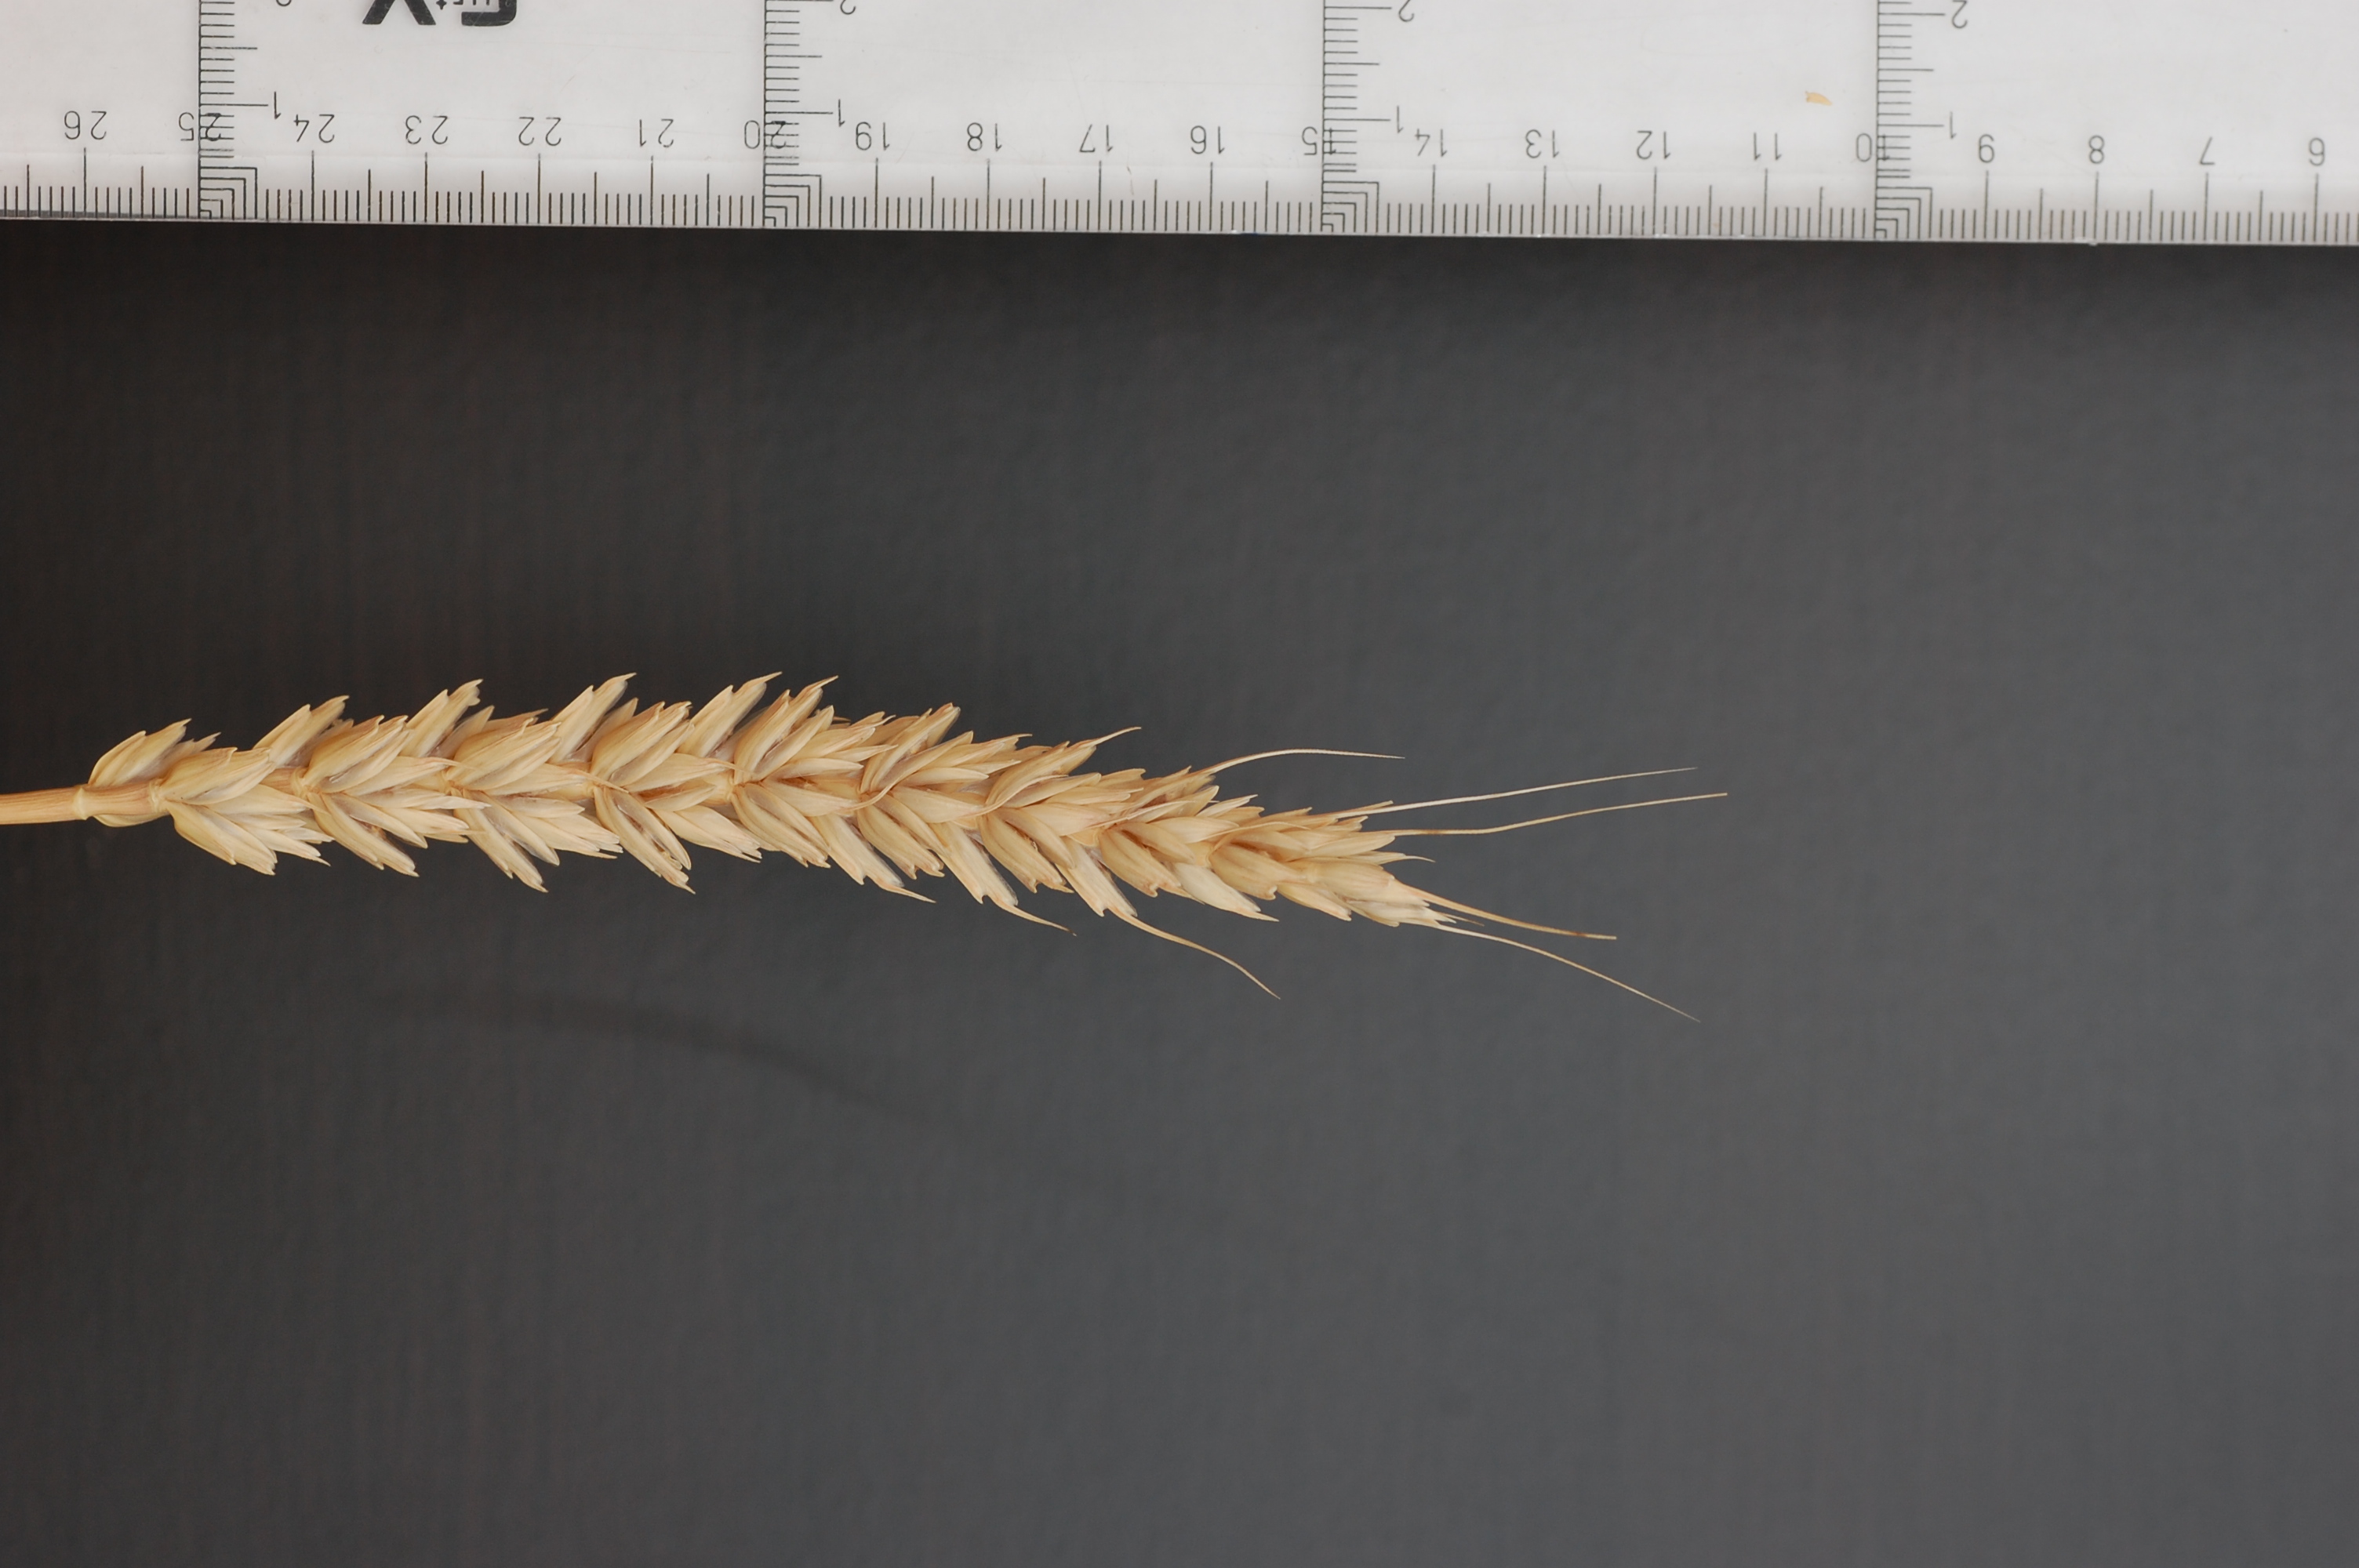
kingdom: Plantae
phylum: Tracheophyta
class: Liliopsida
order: Poales
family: Poaceae
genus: Triticum
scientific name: Triticum aestivum
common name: Common wheat
